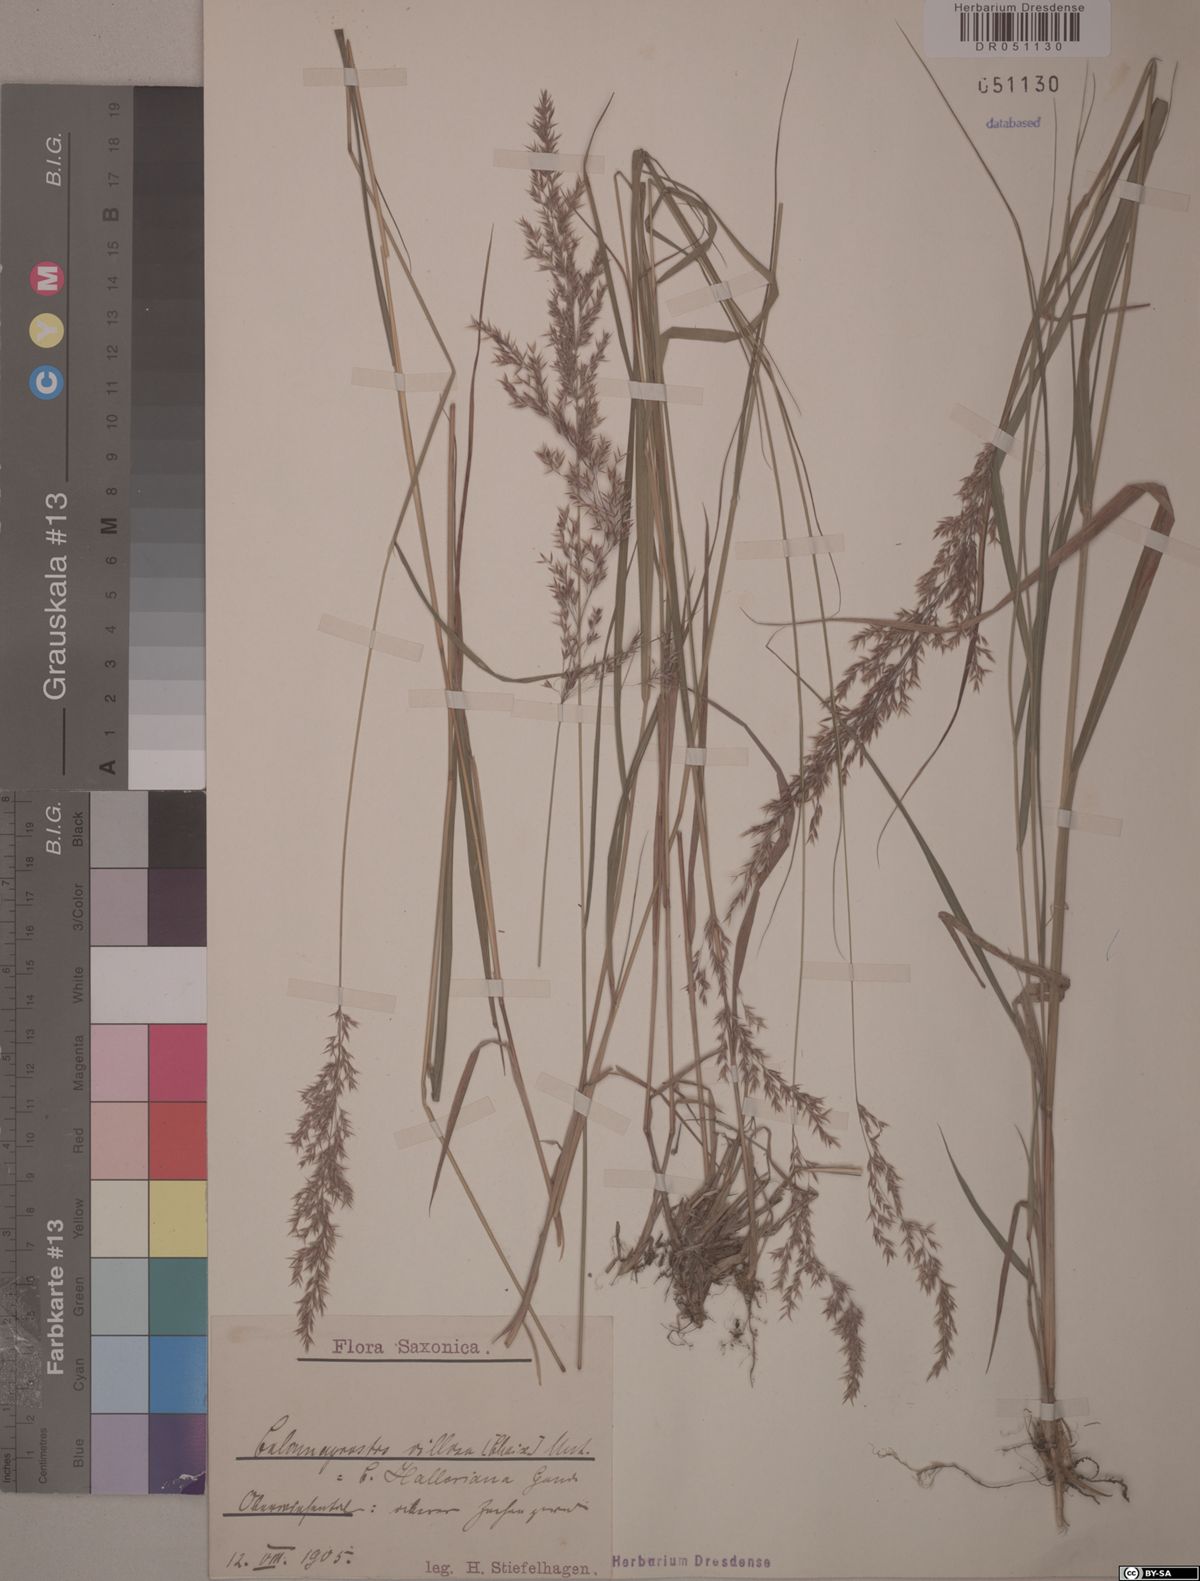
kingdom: Plantae
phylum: Tracheophyta
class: Liliopsida
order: Poales
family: Poaceae
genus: Calamagrostis
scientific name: Calamagrostis villosa
